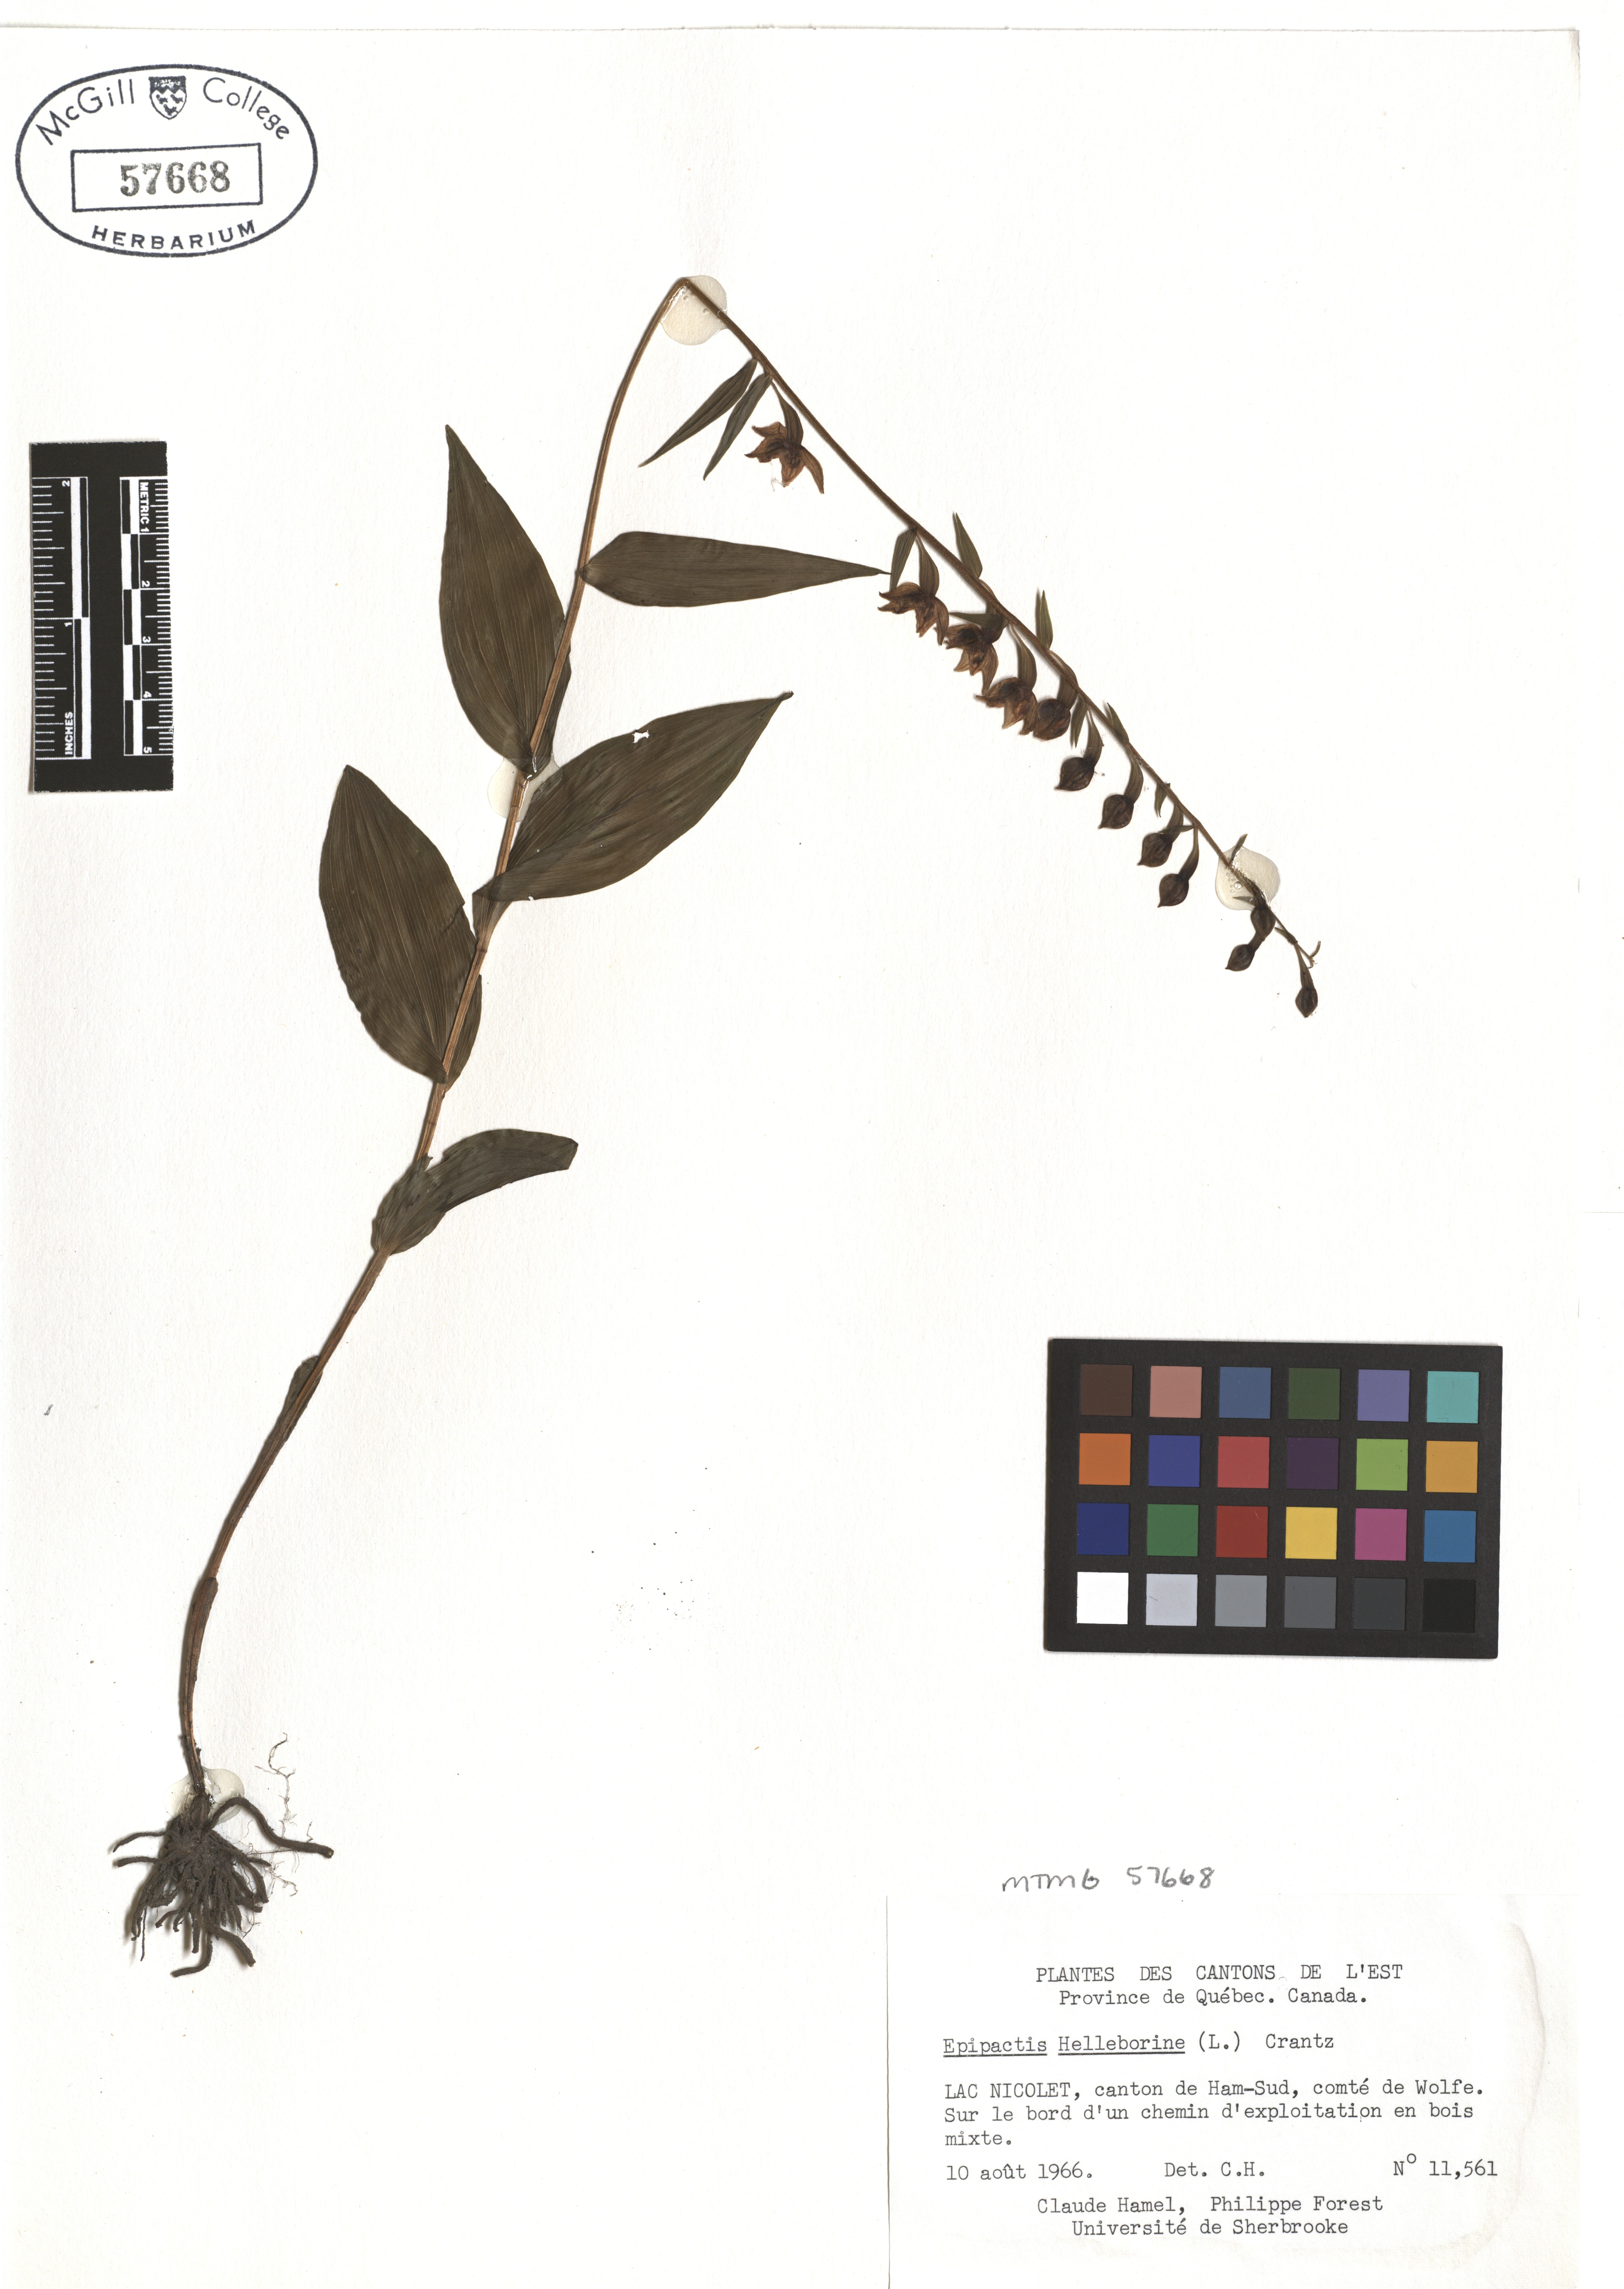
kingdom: Plantae
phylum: Tracheophyta
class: Liliopsida
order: Asparagales
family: Orchidaceae
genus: Epipactis
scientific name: Epipactis helleborine
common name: Broad-leaved helleborine
